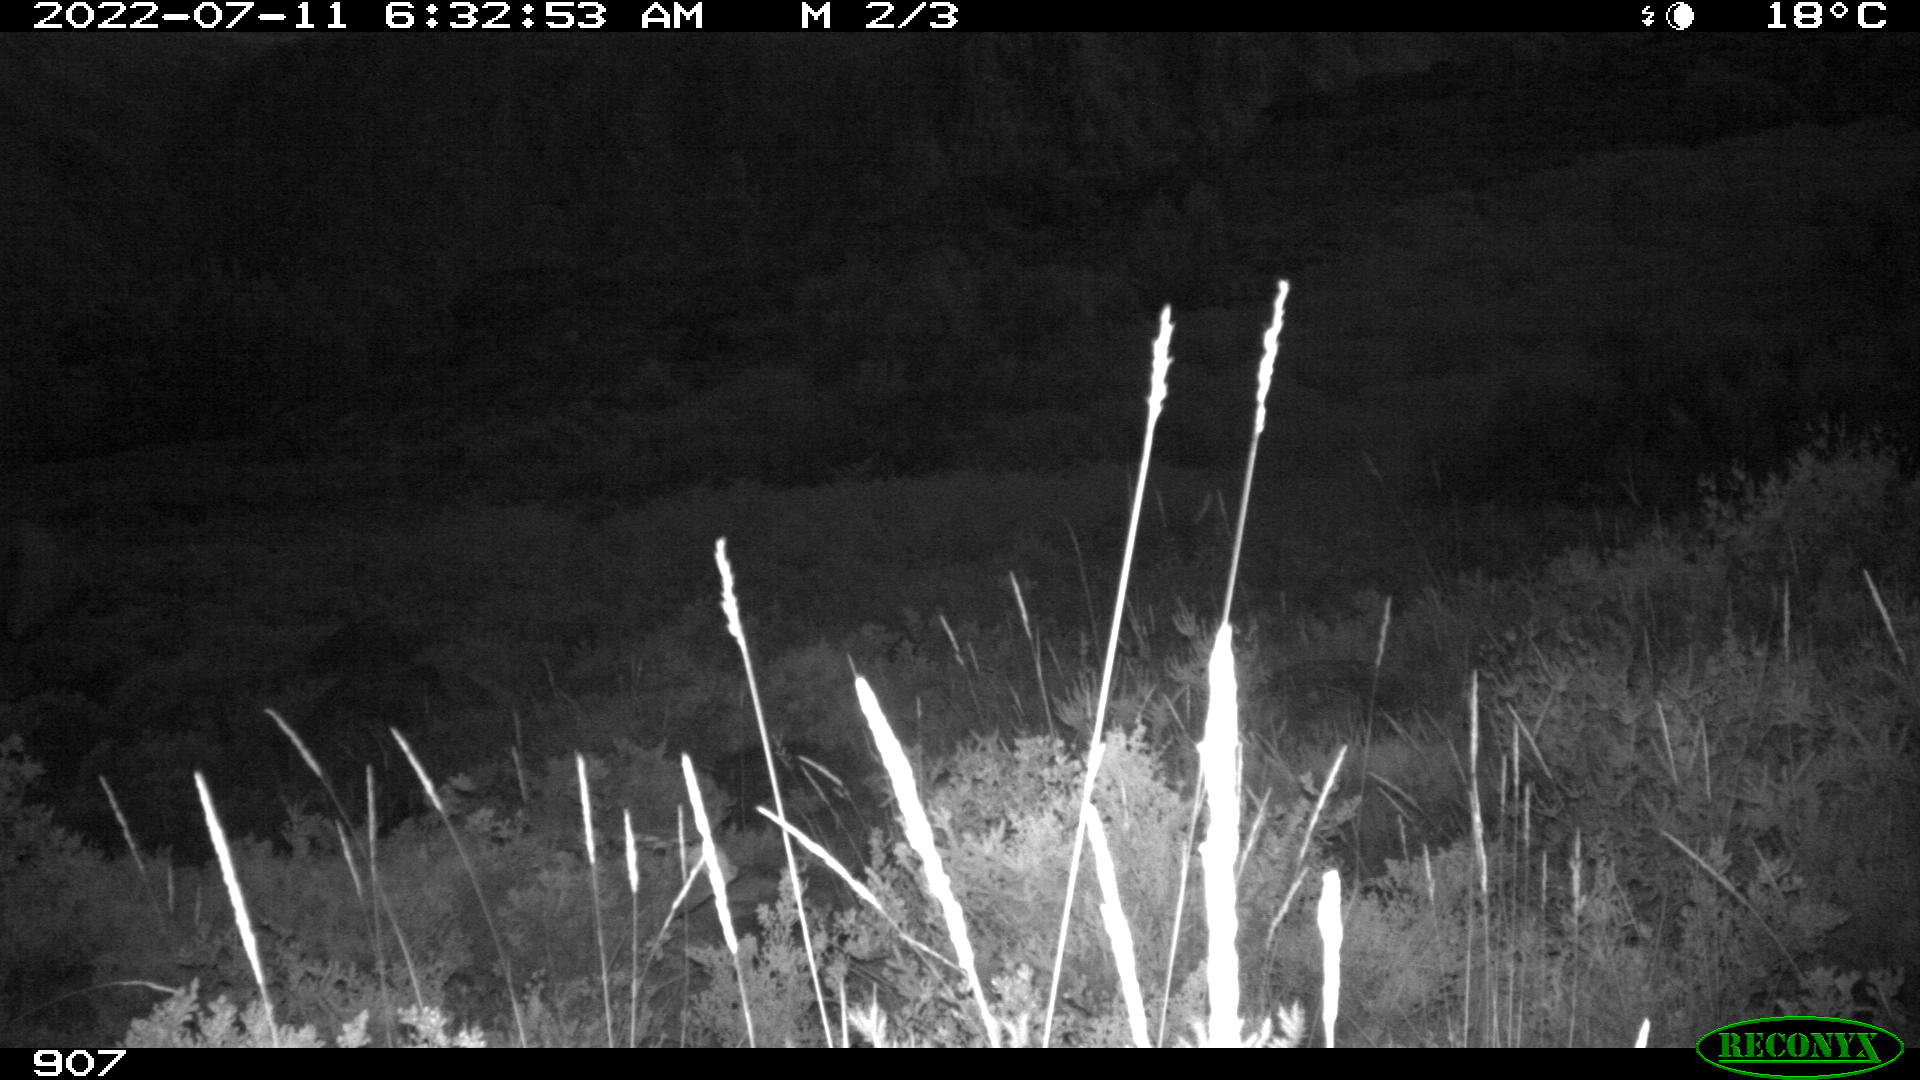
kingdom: Animalia
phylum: Chordata
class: Mammalia
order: Artiodactyla
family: Bovidae
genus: Bos
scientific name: Bos taurus
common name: Domesticated cattle
